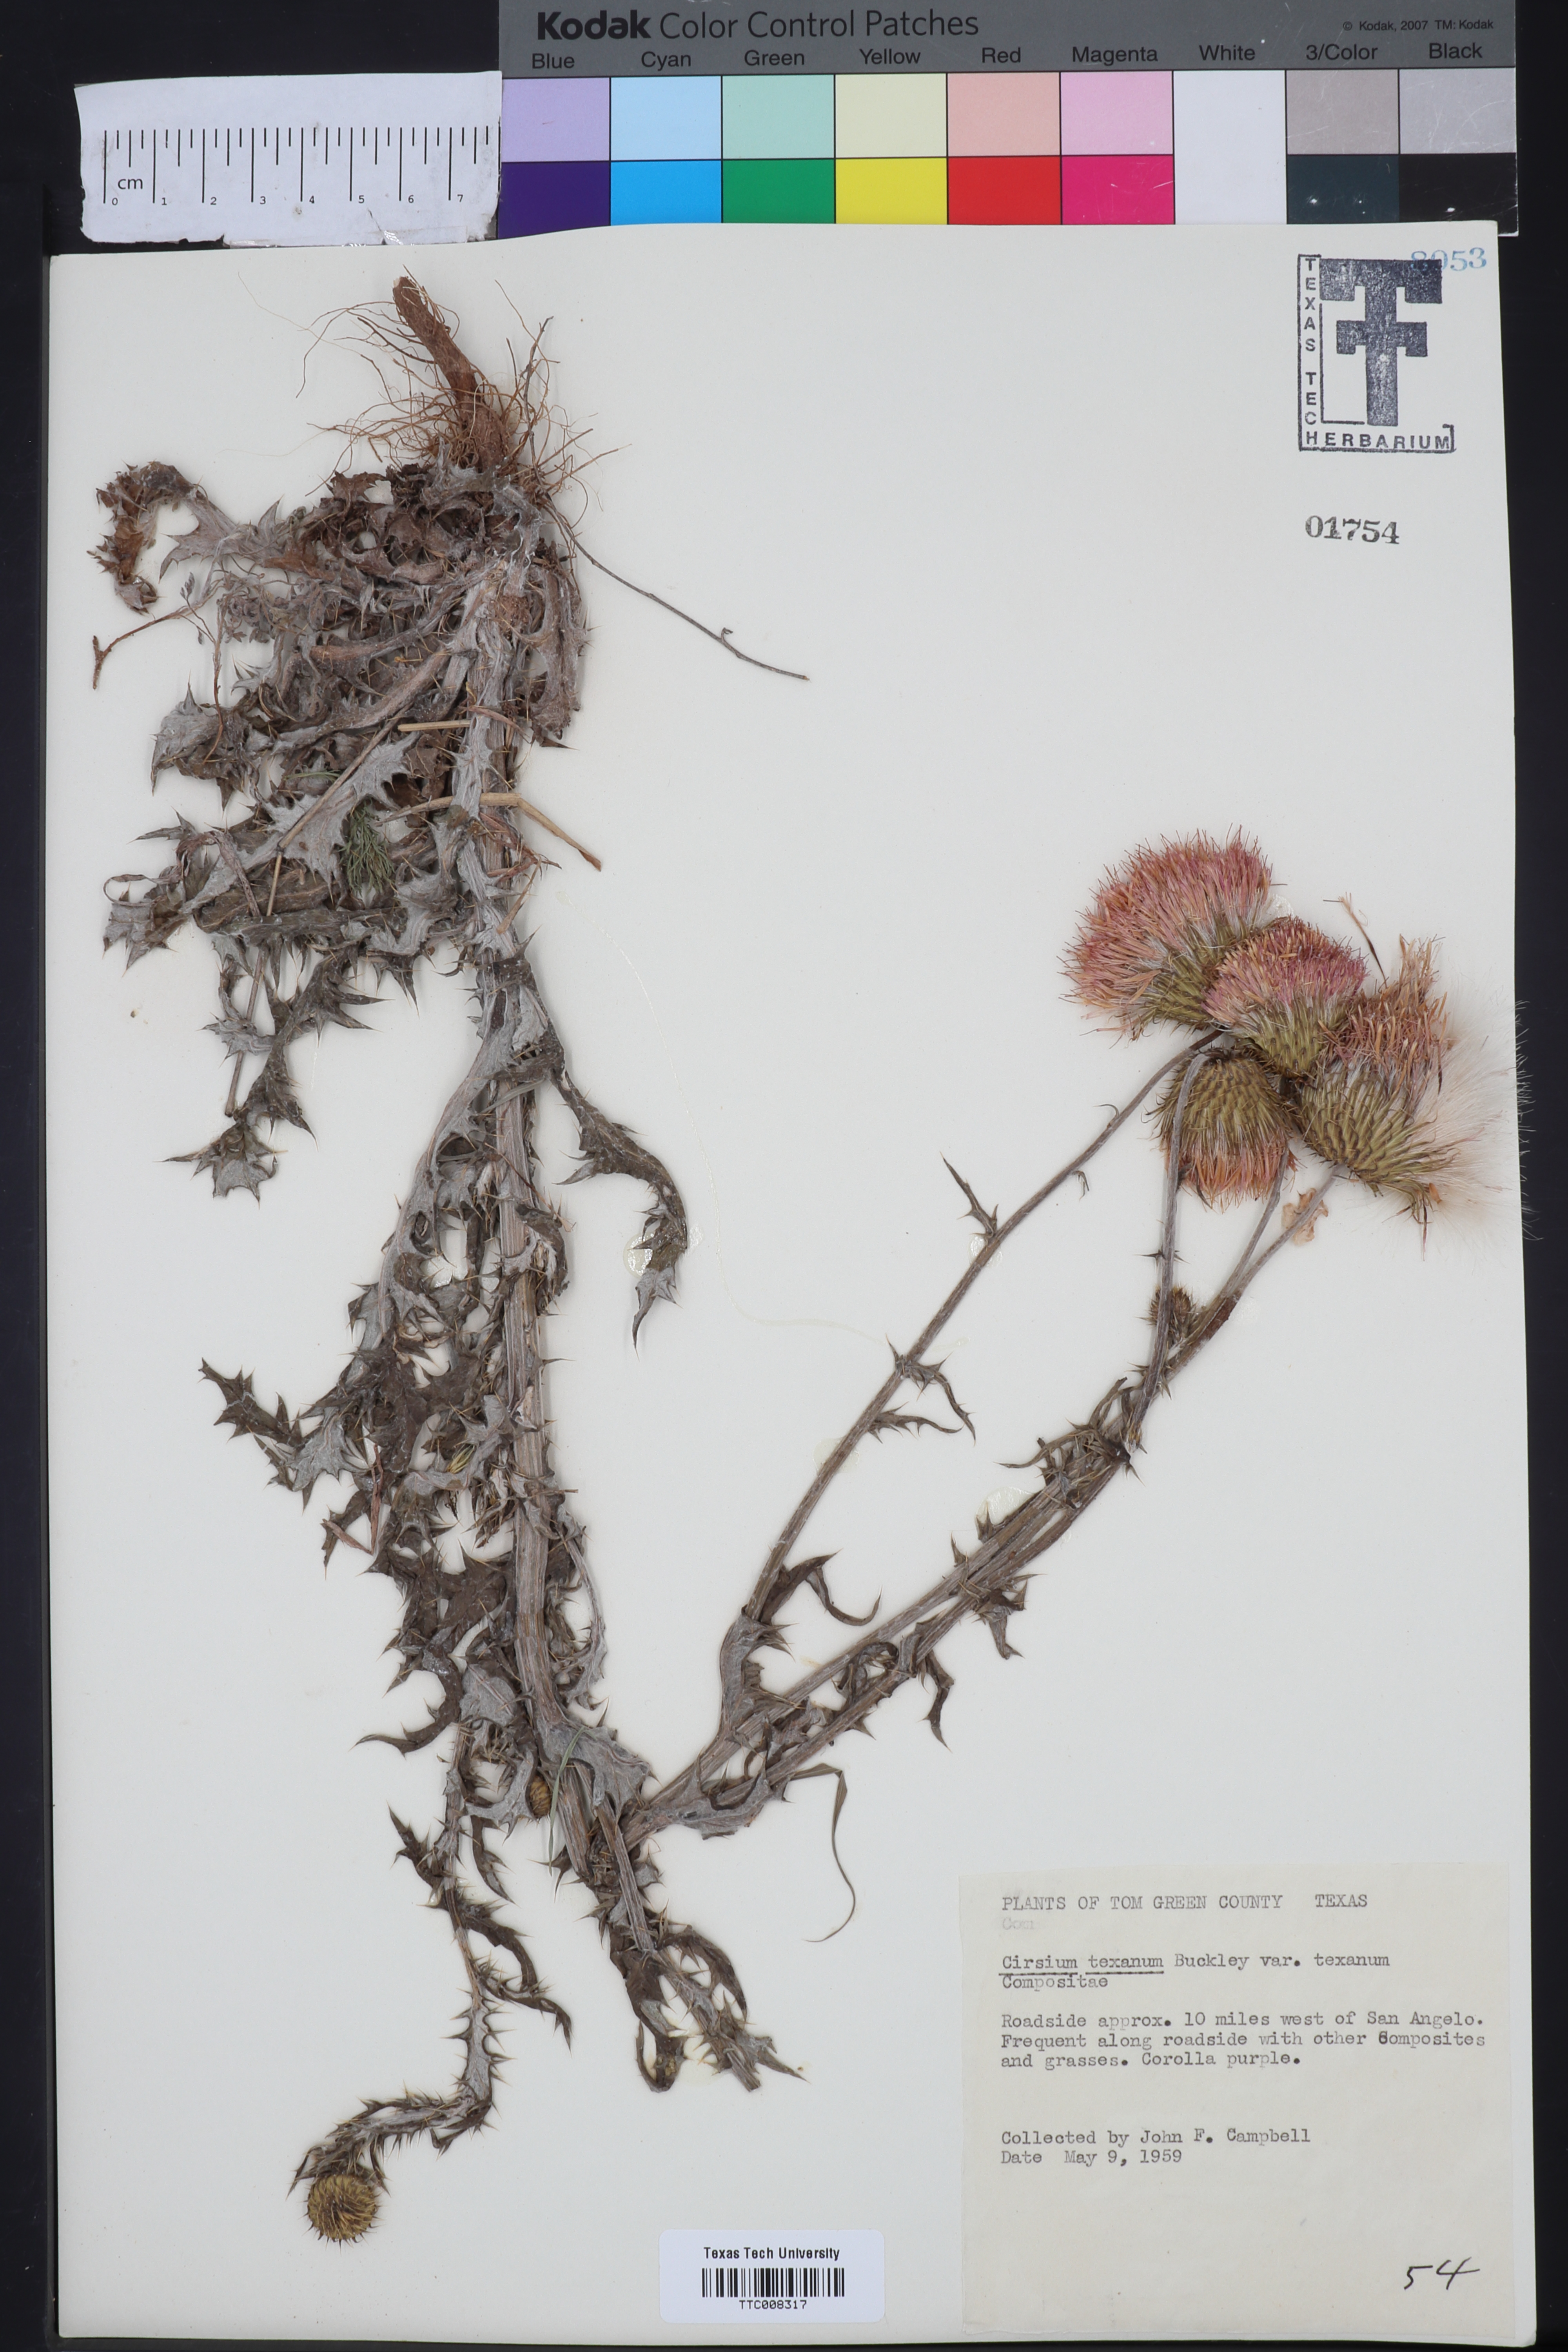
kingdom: Plantae
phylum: Tracheophyta
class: Magnoliopsida
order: Asterales
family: Asteraceae
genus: Cirsium
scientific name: Cirsium texanum
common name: Texas purple thistle
